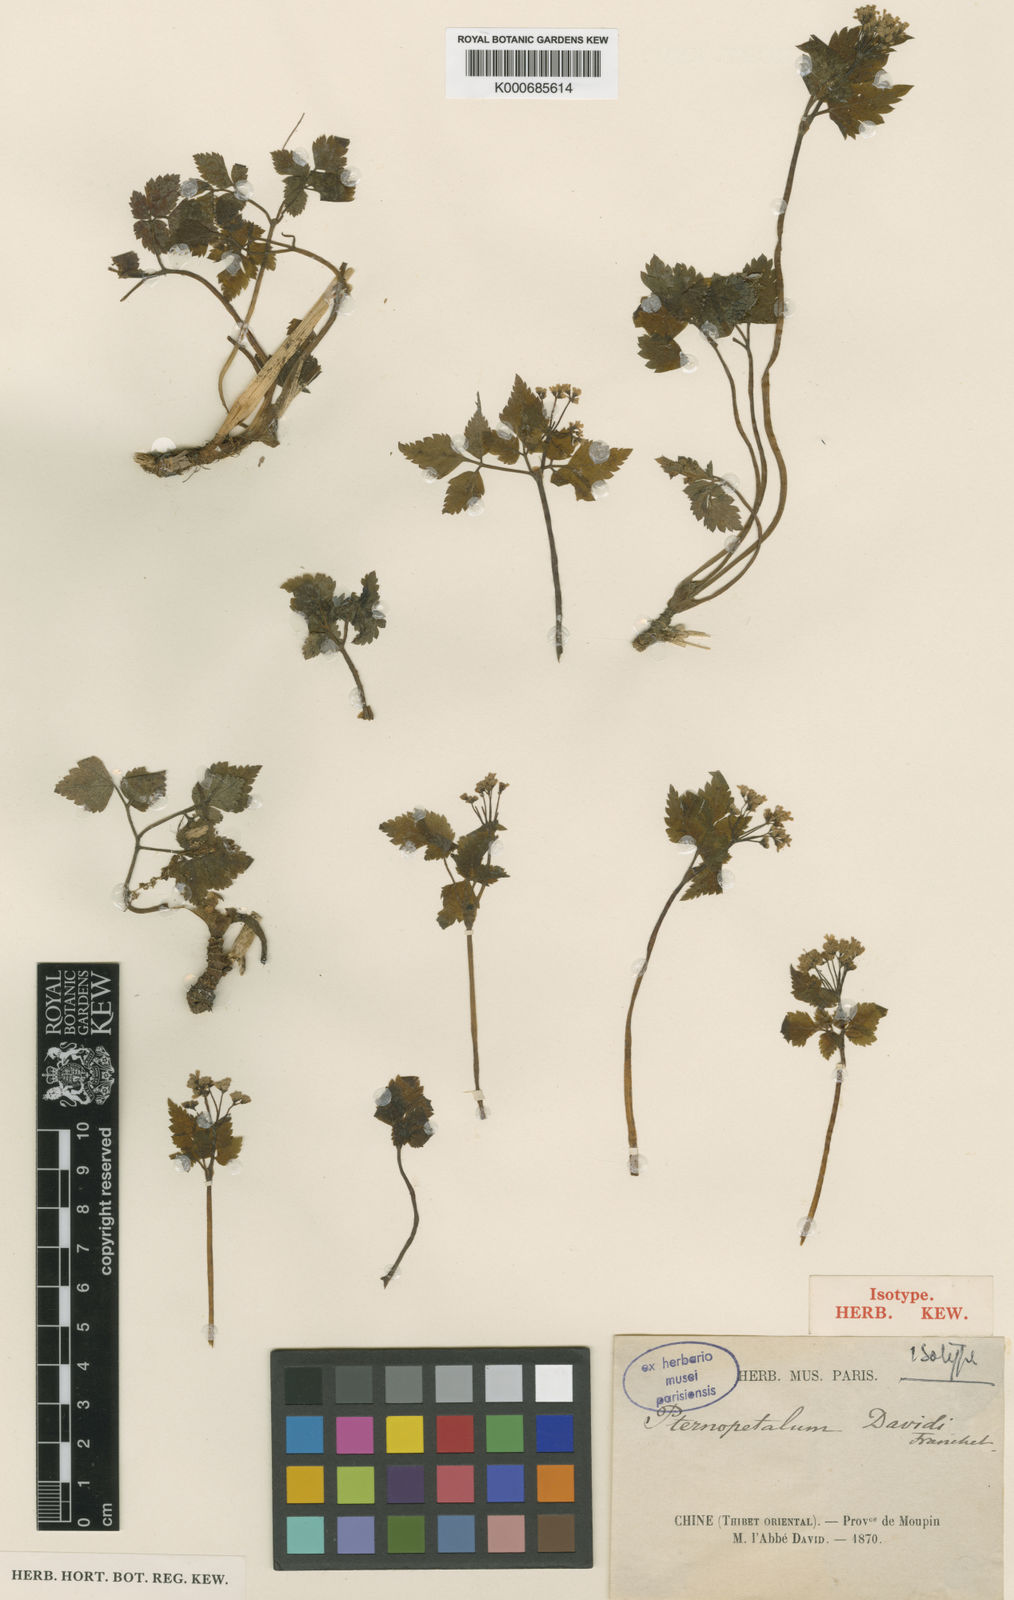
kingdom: Plantae
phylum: Tracheophyta
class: Magnoliopsida
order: Apiales
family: Apiaceae
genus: Pternopetalum
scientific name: Pternopetalum davidi
